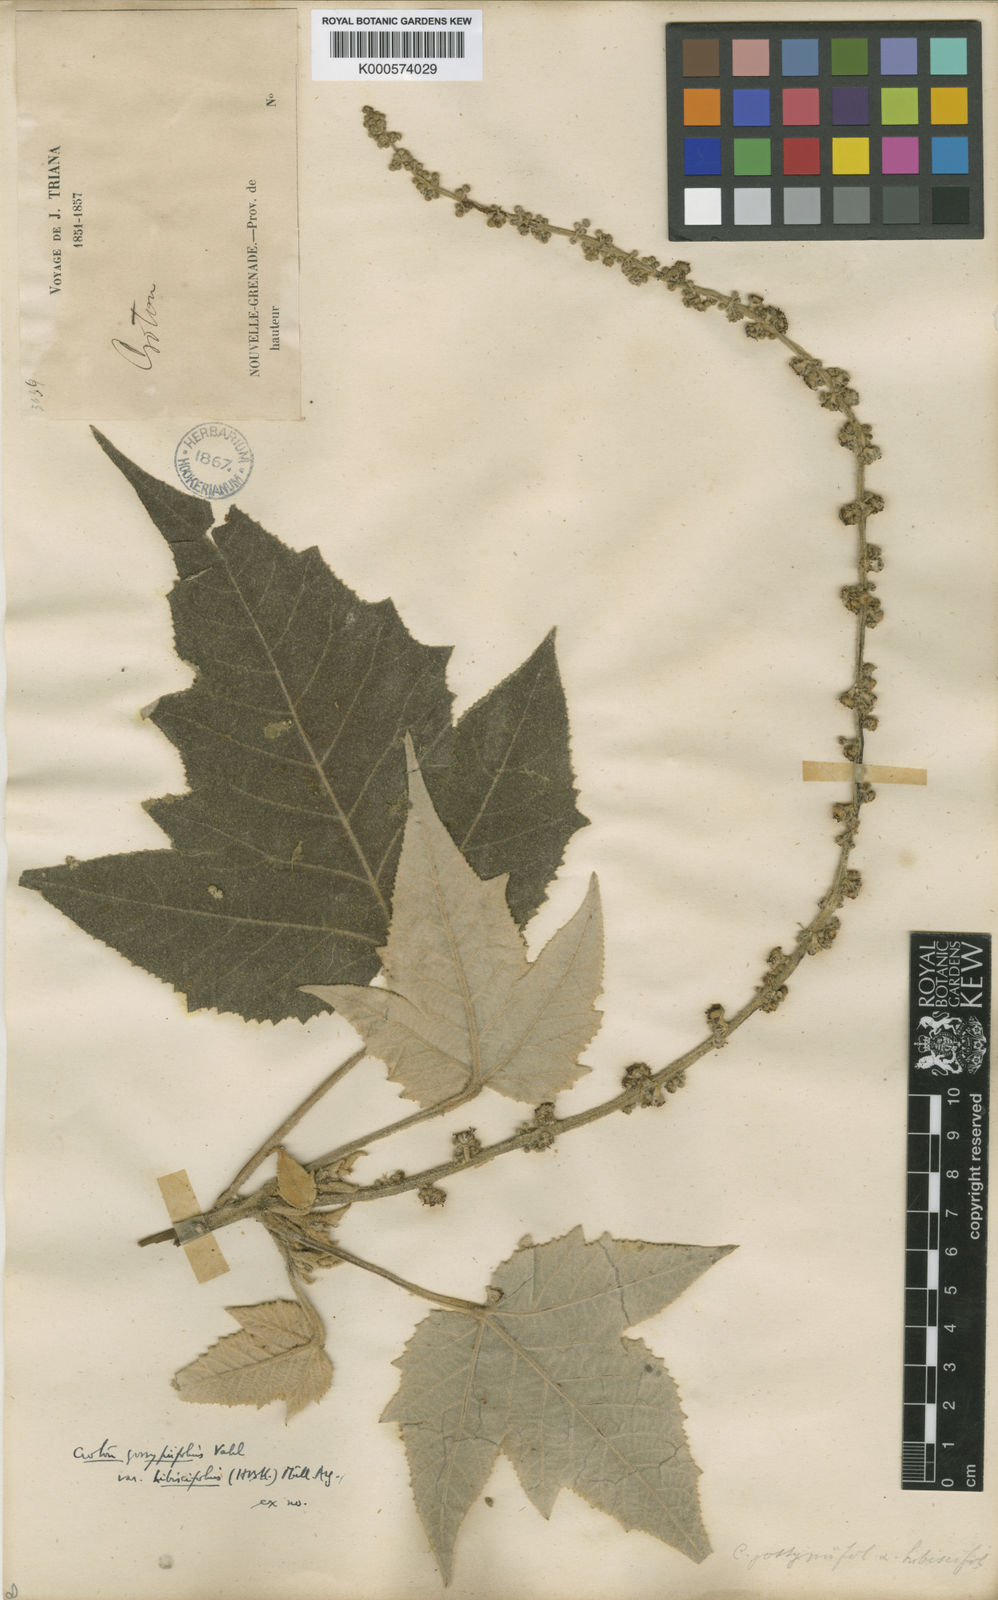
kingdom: Plantae
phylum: Tracheophyta
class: Magnoliopsida
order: Malpighiales
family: Euphorbiaceae
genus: Croton
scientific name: Croton gossypiifolius
